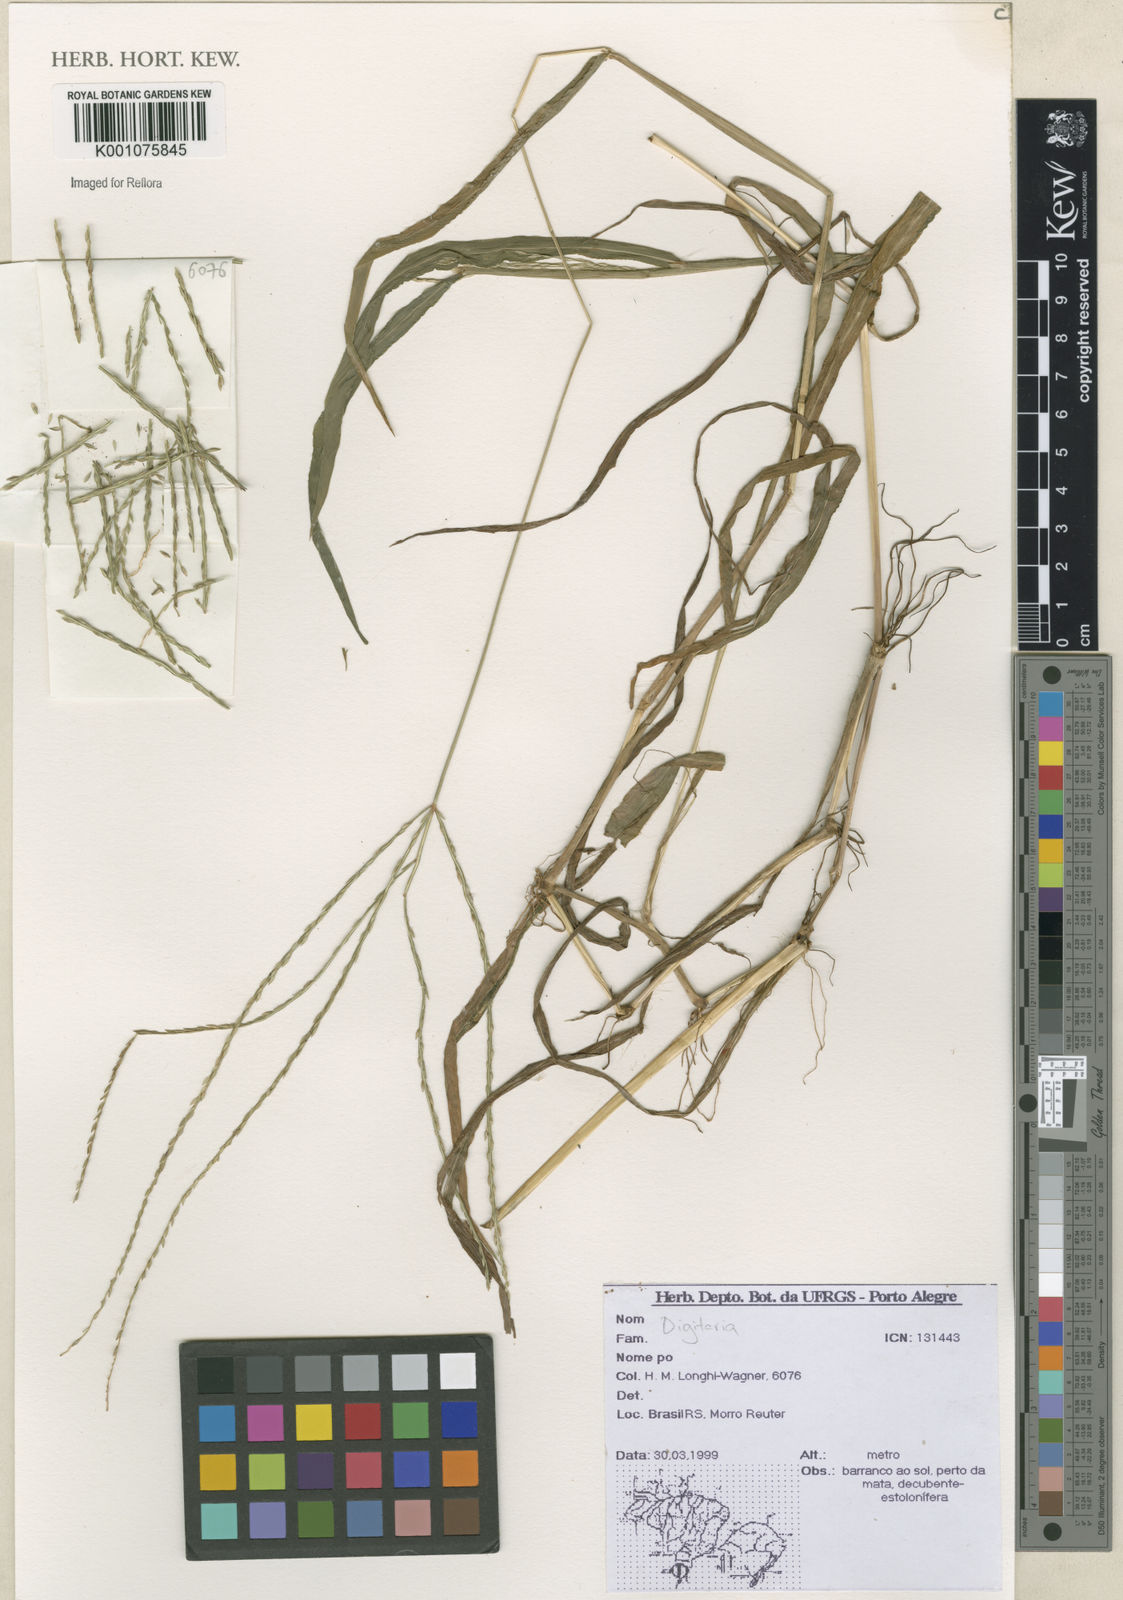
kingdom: Plantae
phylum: Tracheophyta
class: Liliopsida
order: Poales
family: Poaceae
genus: Digitaria
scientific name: Digitaria
